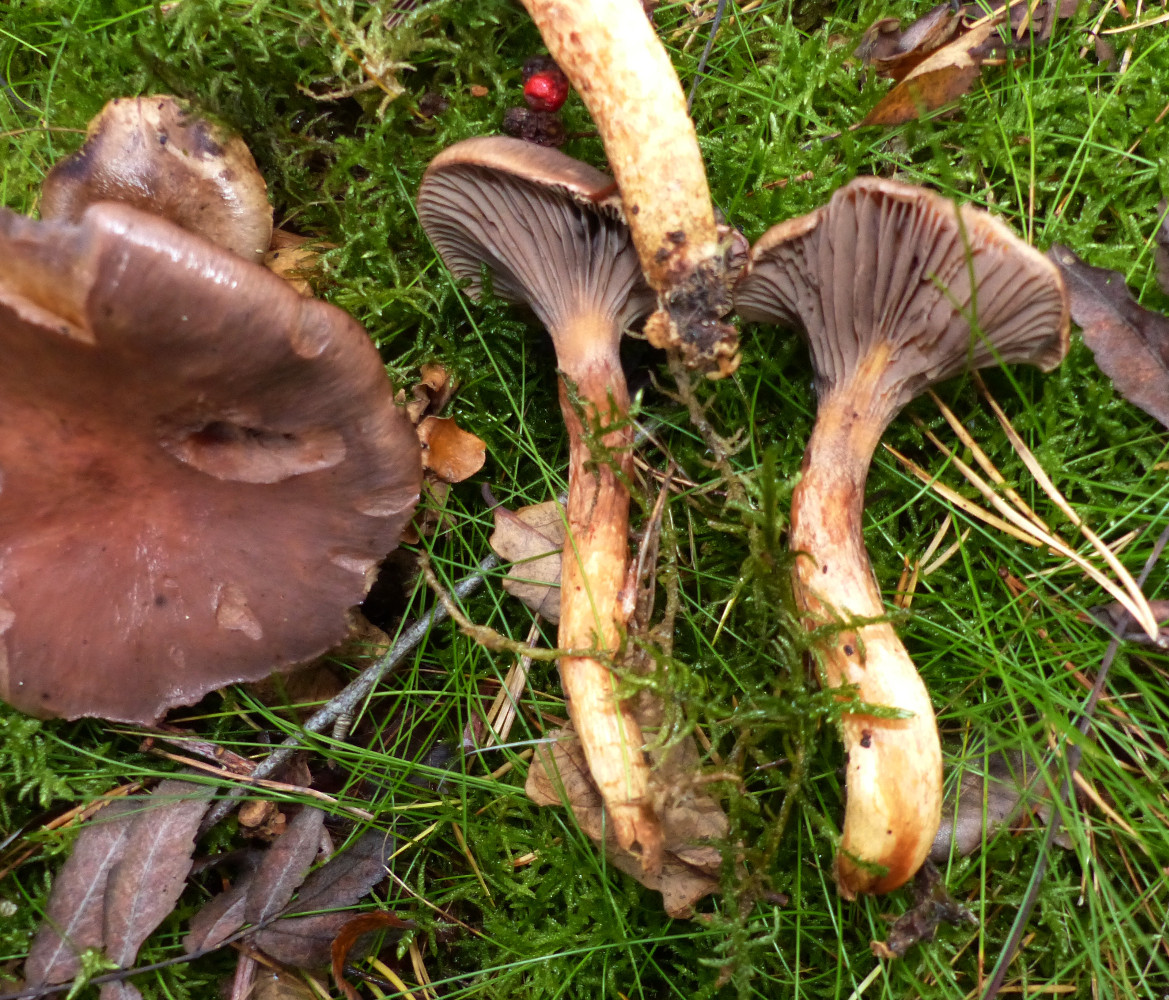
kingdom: Fungi
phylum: Basidiomycota
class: Agaricomycetes
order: Boletales
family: Gomphidiaceae
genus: Chroogomphus
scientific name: Chroogomphus rutilus
